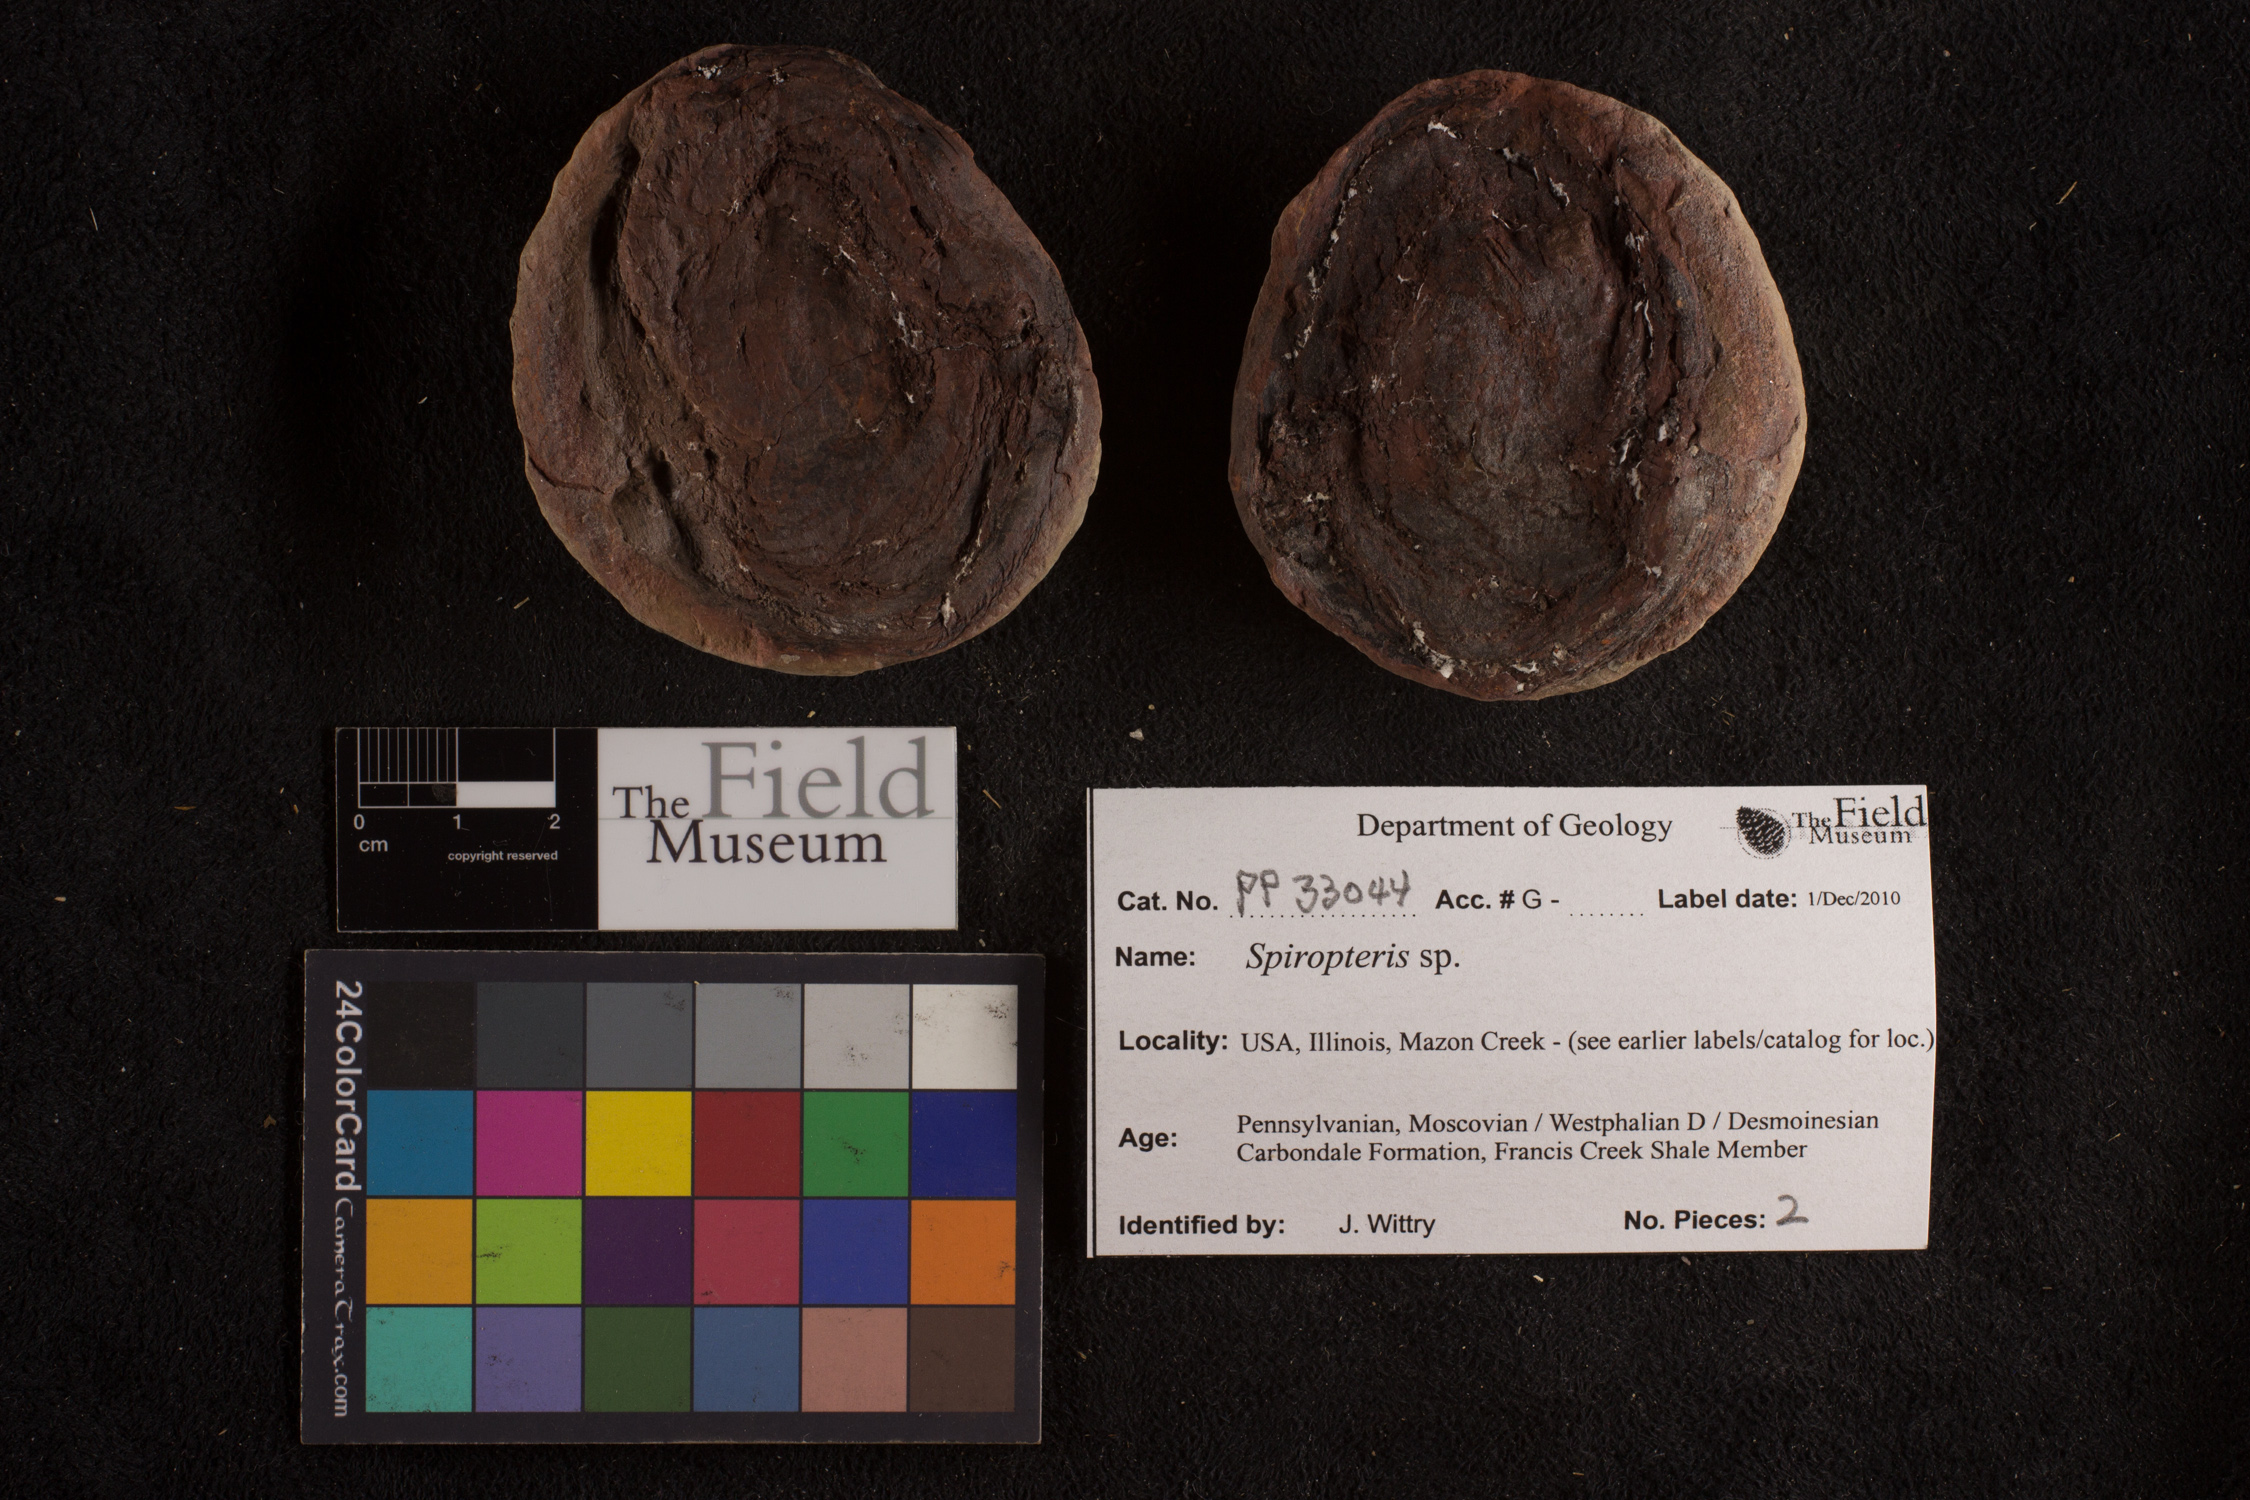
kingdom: Plantae
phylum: Tracheophyta
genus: Spiropteris
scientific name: Spiropteris
